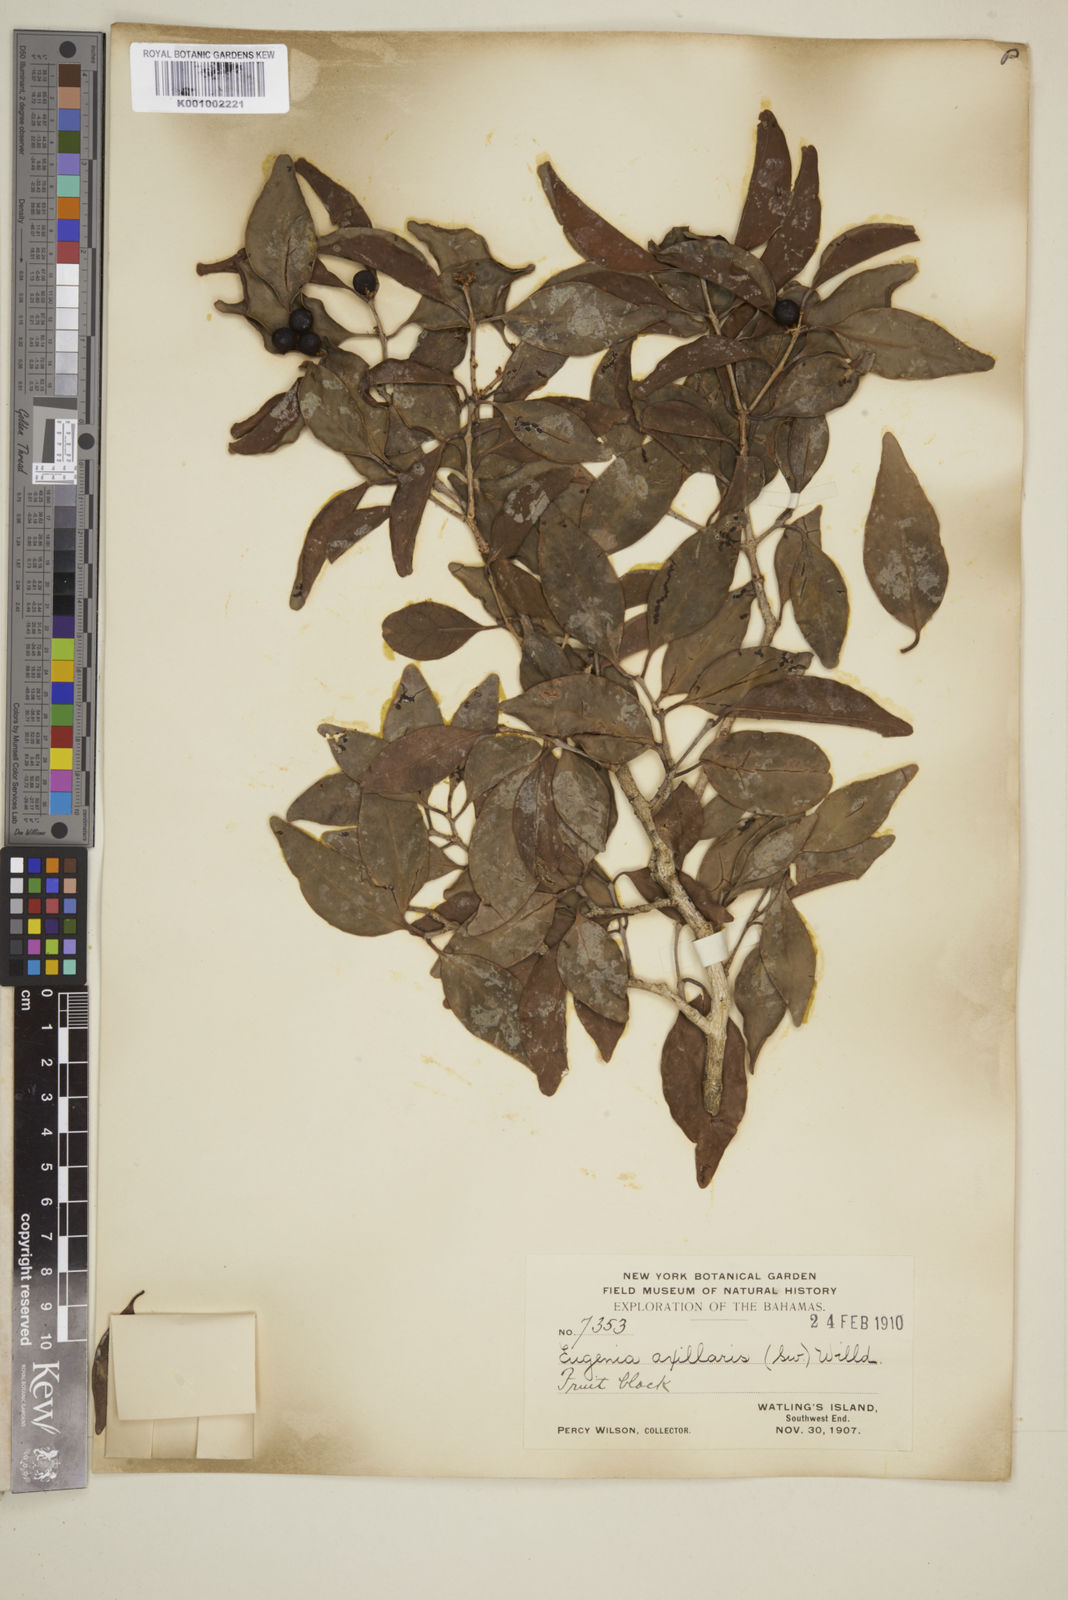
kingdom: Plantae
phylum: Tracheophyta
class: Magnoliopsida
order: Myrtales
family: Myrtaceae
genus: Eugenia
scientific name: Eugenia axillaris
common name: Choaky berry
